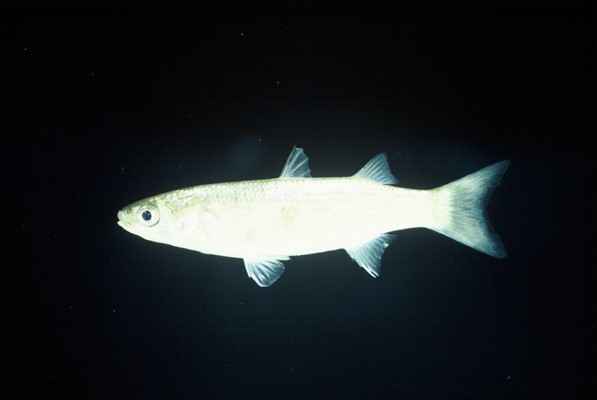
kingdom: Animalia
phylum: Chordata
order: Mugiliformes
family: Mugilidae
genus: Chelon
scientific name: Chelon tricuspidens
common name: Striped mullet
